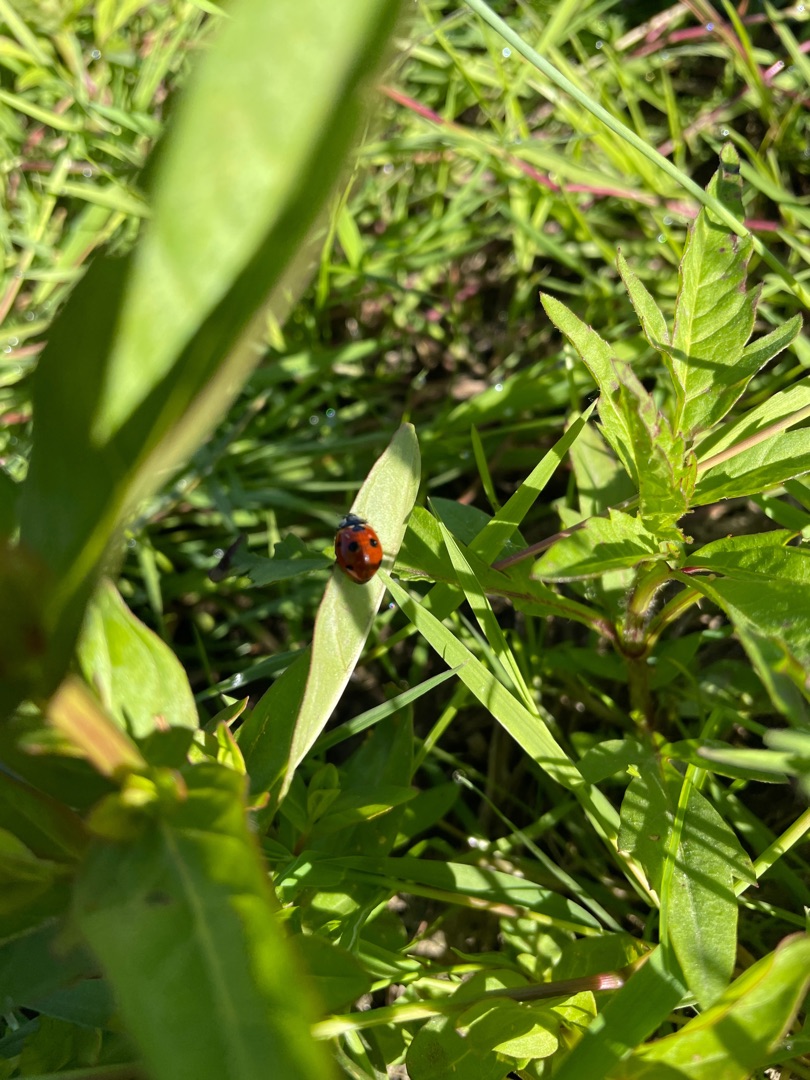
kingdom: Animalia
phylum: Arthropoda
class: Insecta
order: Coleoptera
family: Coccinellidae
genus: Coccinella
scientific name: Coccinella septempunctata
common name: Syvplettet mariehøne
